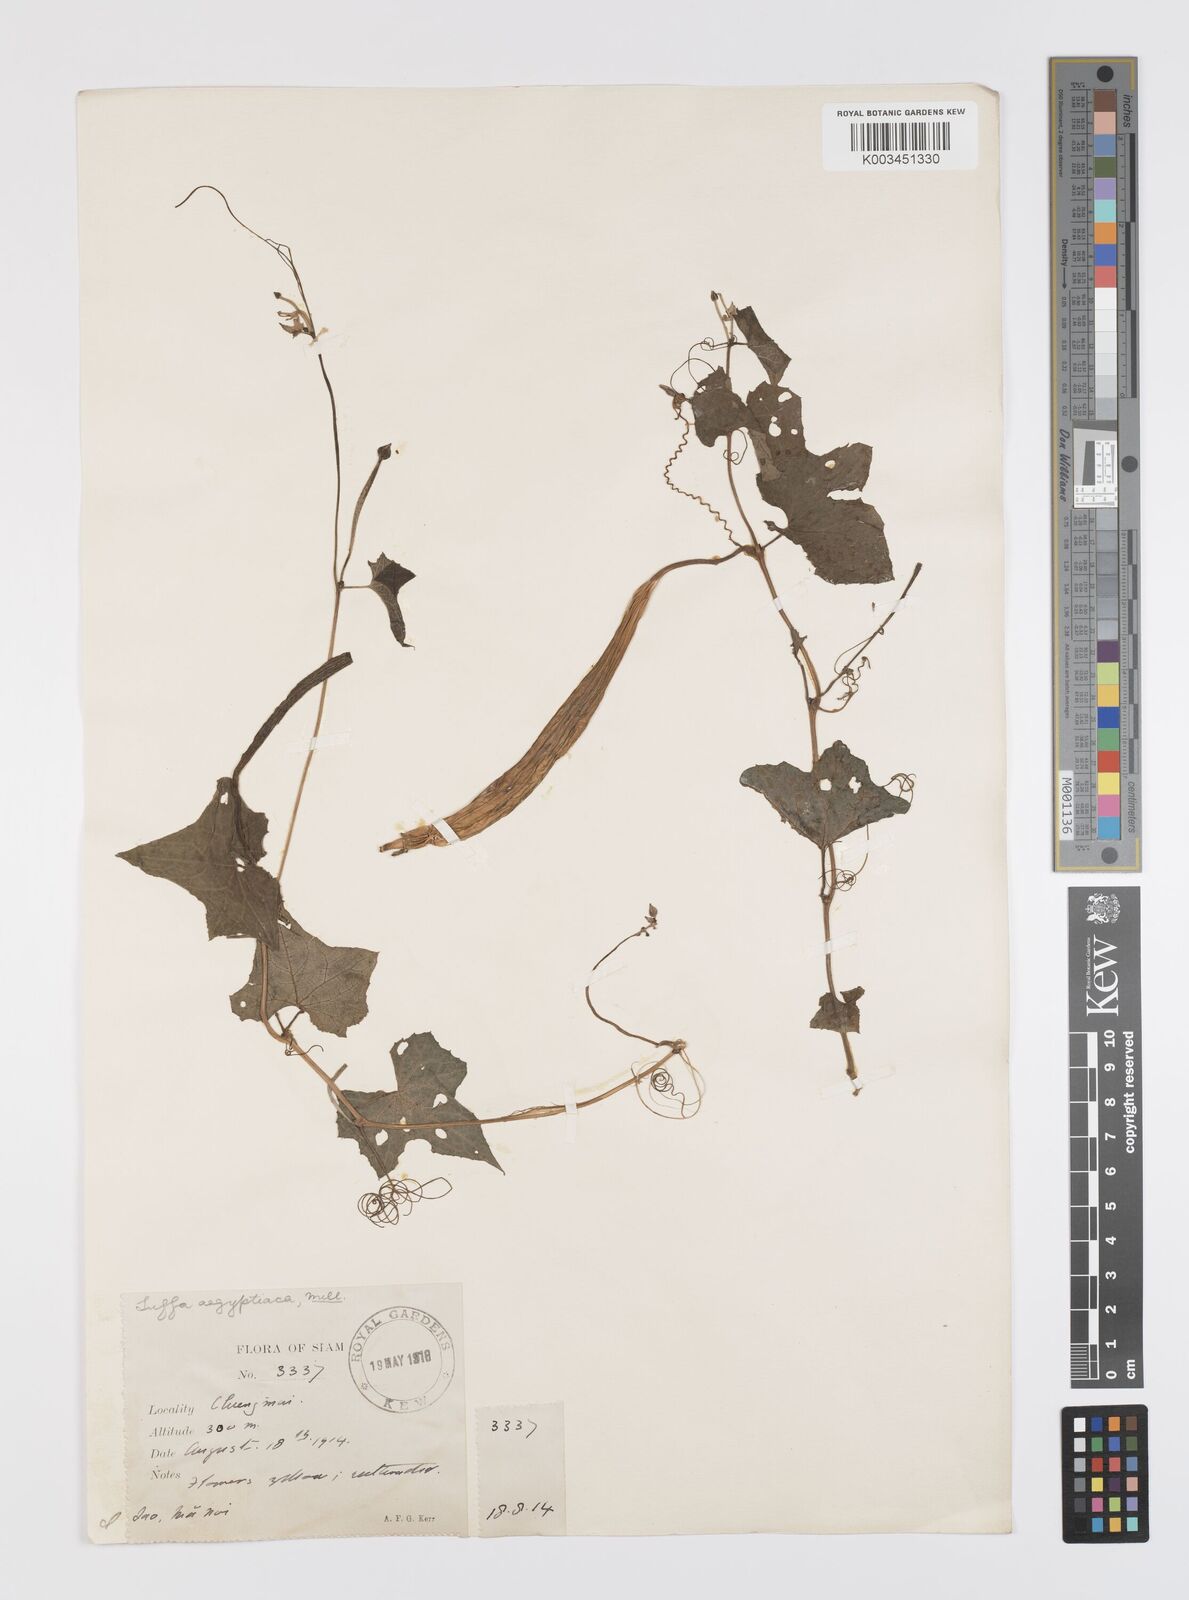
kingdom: Plantae
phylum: Tracheophyta
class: Magnoliopsida
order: Cucurbitales
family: Cucurbitaceae
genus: Luffa
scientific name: Luffa acutangula
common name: Sinkwa towelsponge
